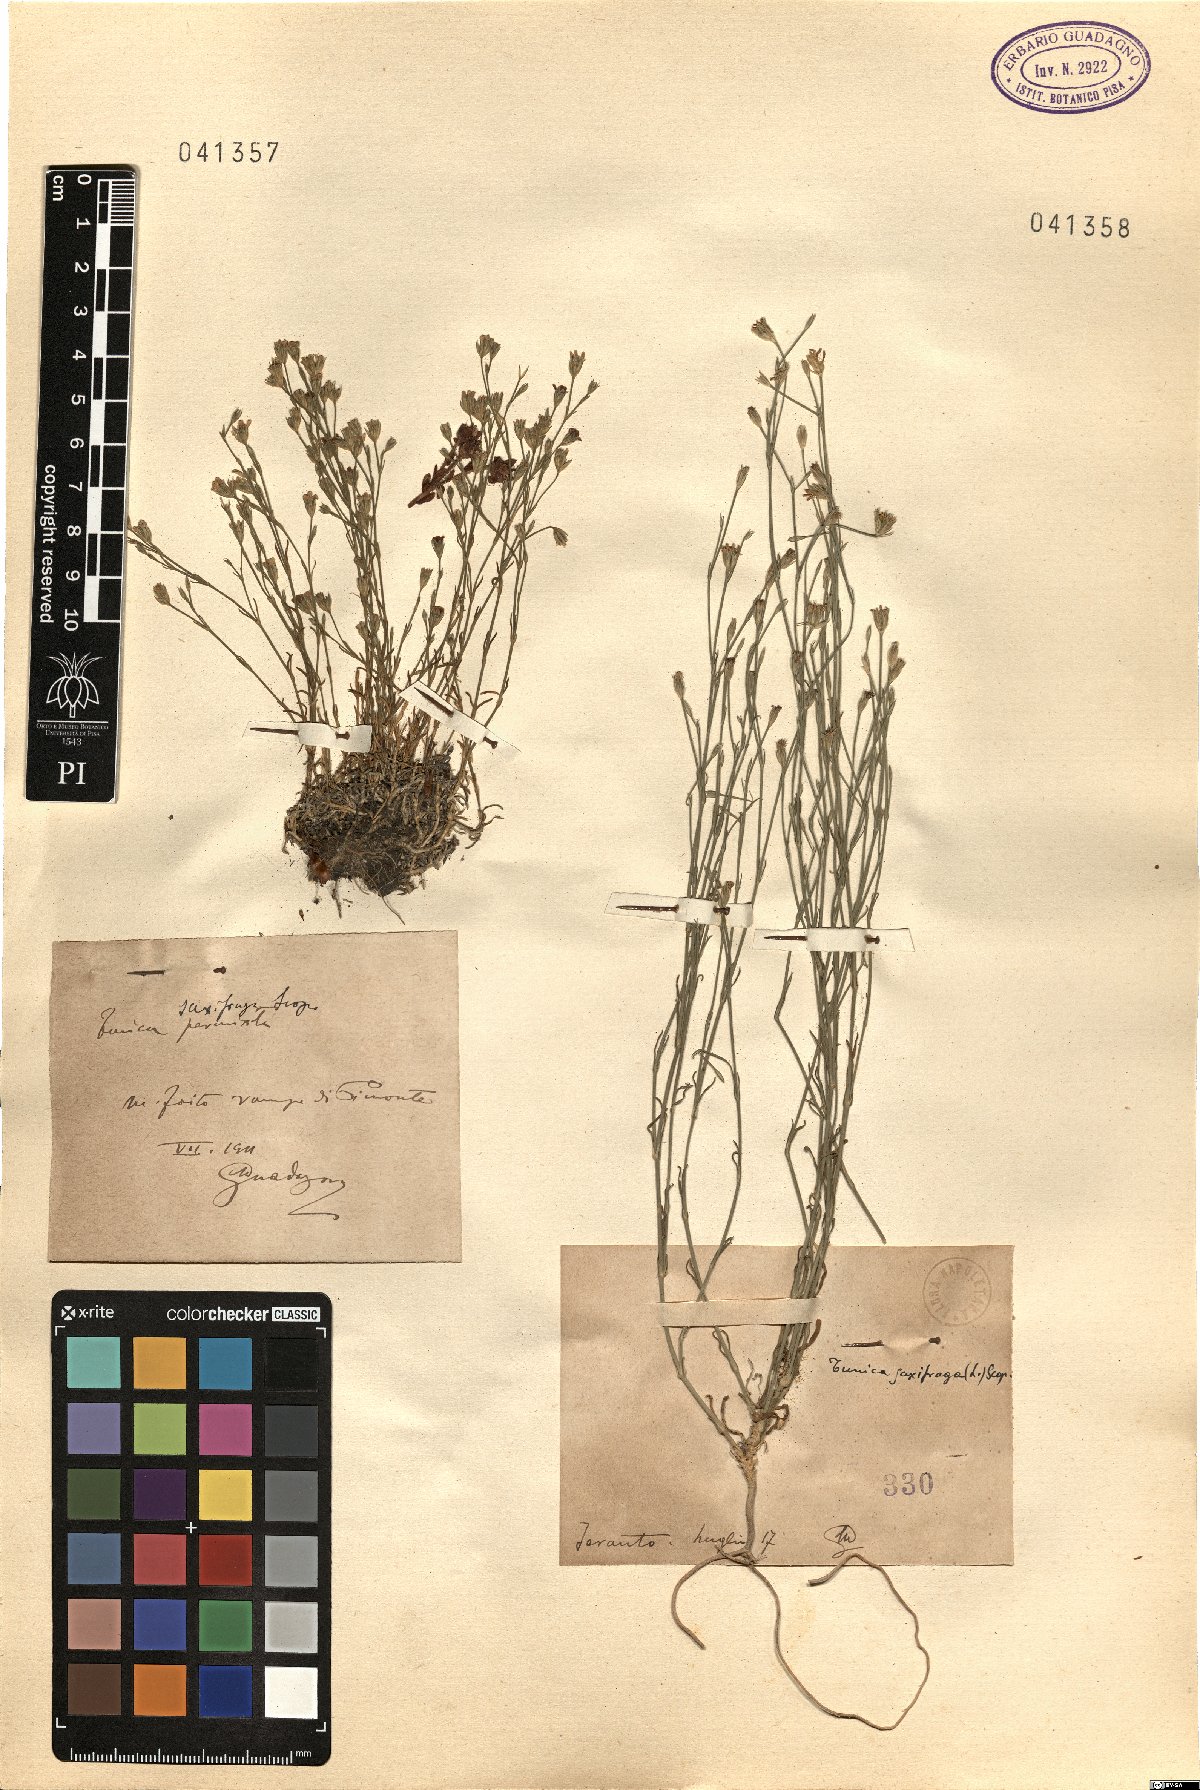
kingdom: Plantae
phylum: Tracheophyta
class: Magnoliopsida
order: Caryophyllales
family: Caryophyllaceae
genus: Petrorhagia
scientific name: Petrorhagia saxifraga
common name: Tunicflower
